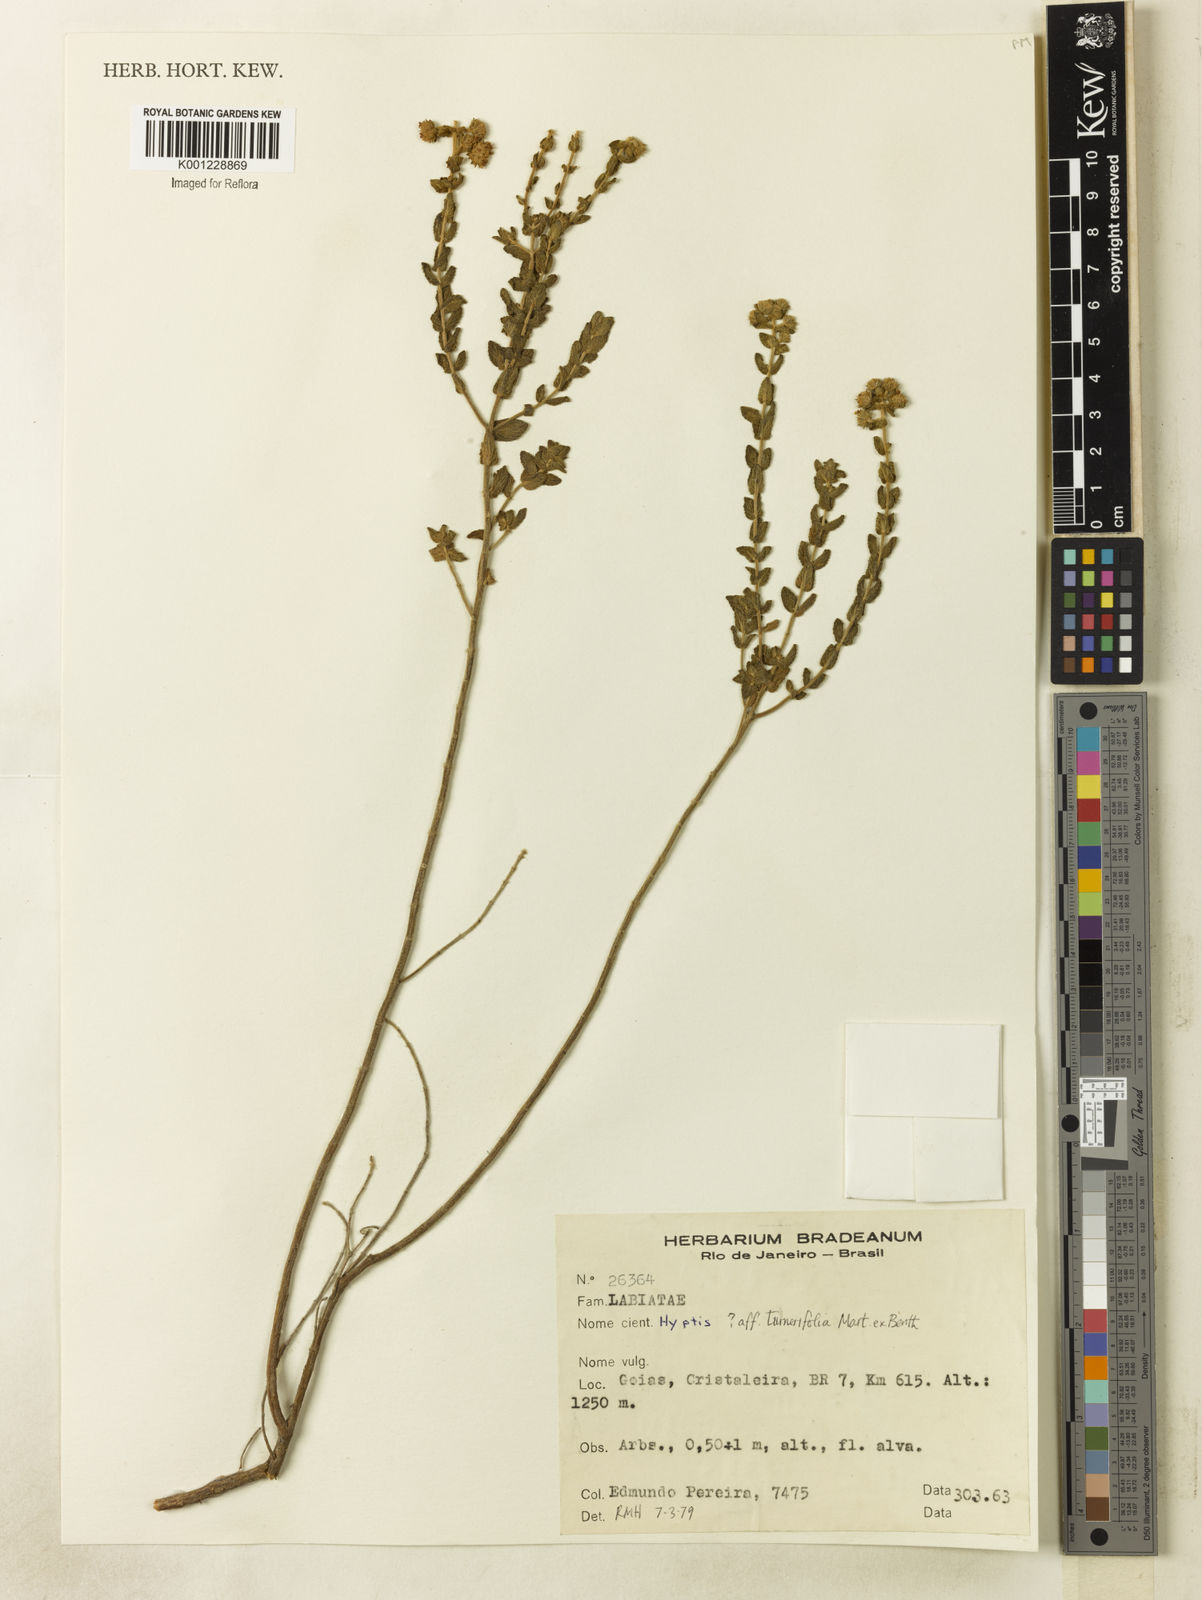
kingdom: Plantae
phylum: Tracheophyta
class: Magnoliopsida
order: Lamiales
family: Lamiaceae
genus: Hyptis
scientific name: Hyptis turnerifolia
